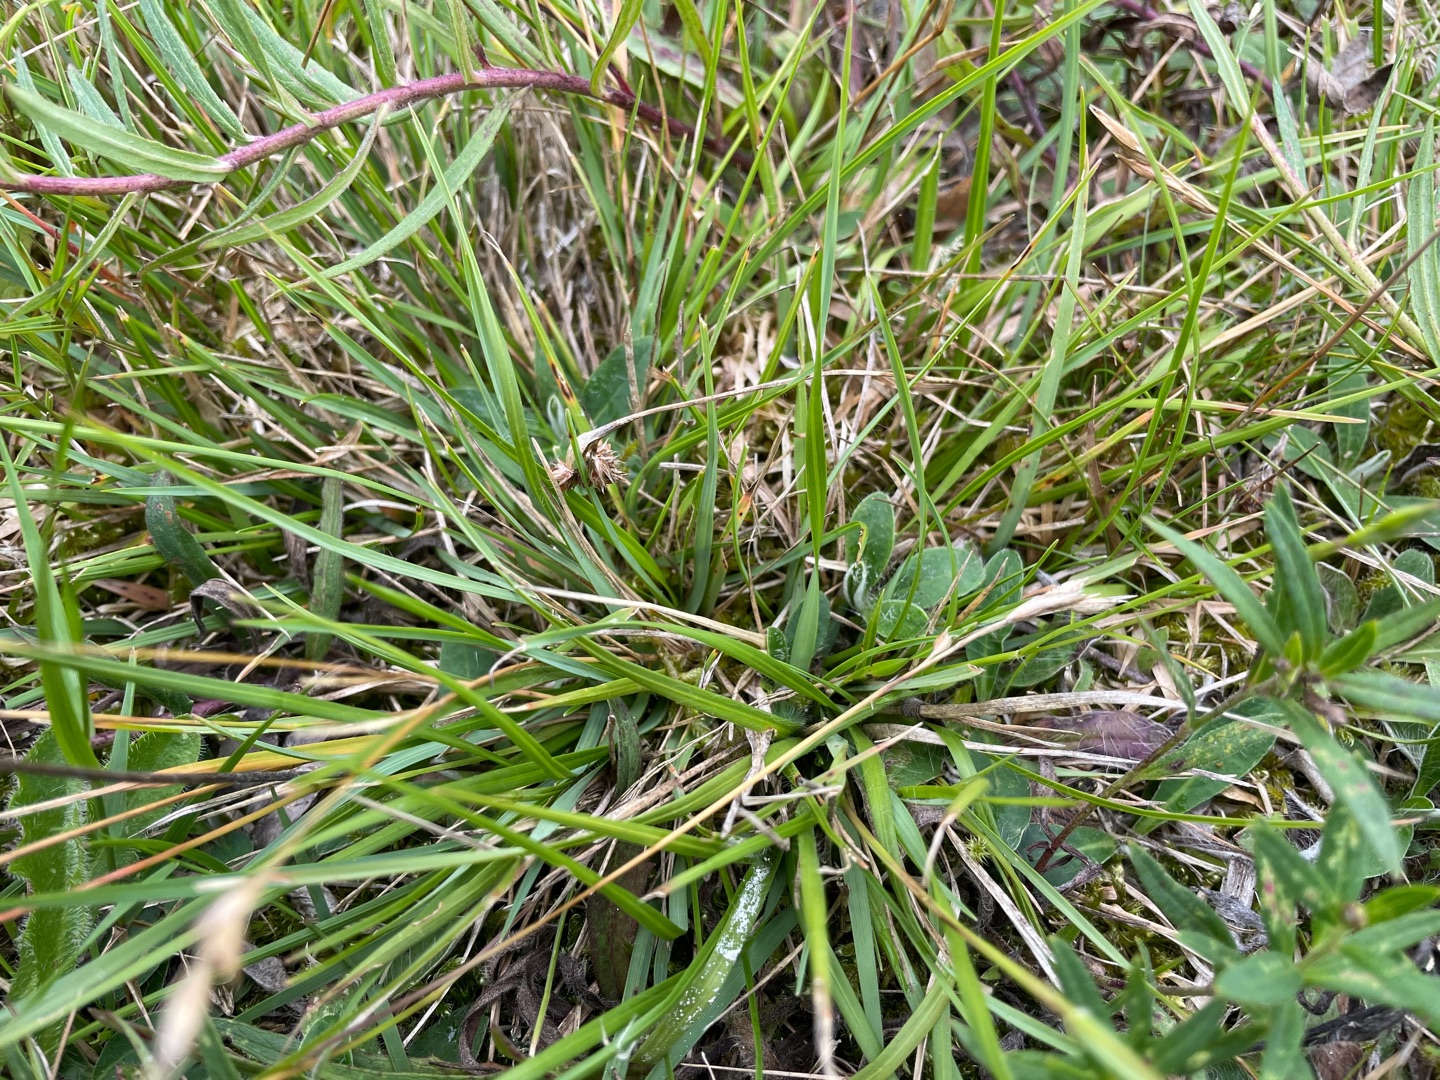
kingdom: Plantae
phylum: Tracheophyta
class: Liliopsida
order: Poales
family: Poaceae
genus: Danthonia
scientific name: Danthonia decumbens
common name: Tandbælg
